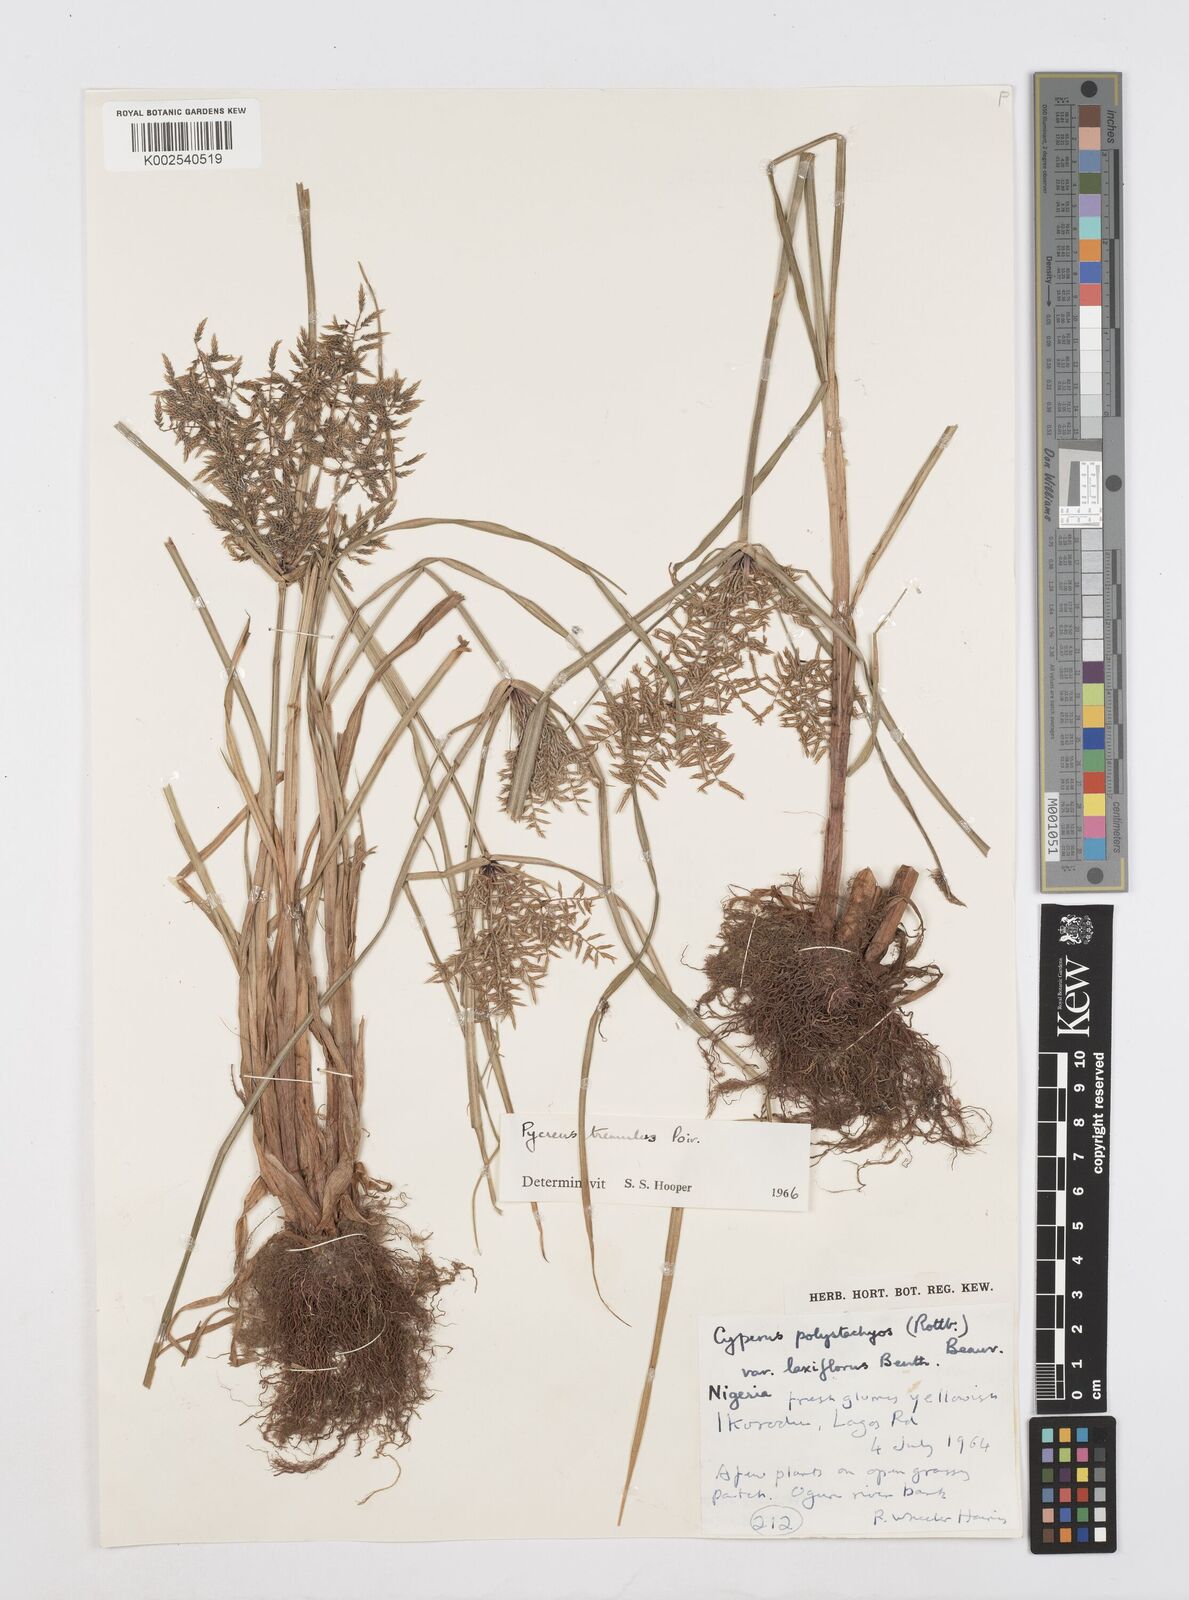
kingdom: Plantae
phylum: Tracheophyta
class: Liliopsida
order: Poales
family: Cyperaceae
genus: Cyperus
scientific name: Cyperus macrostachyos
